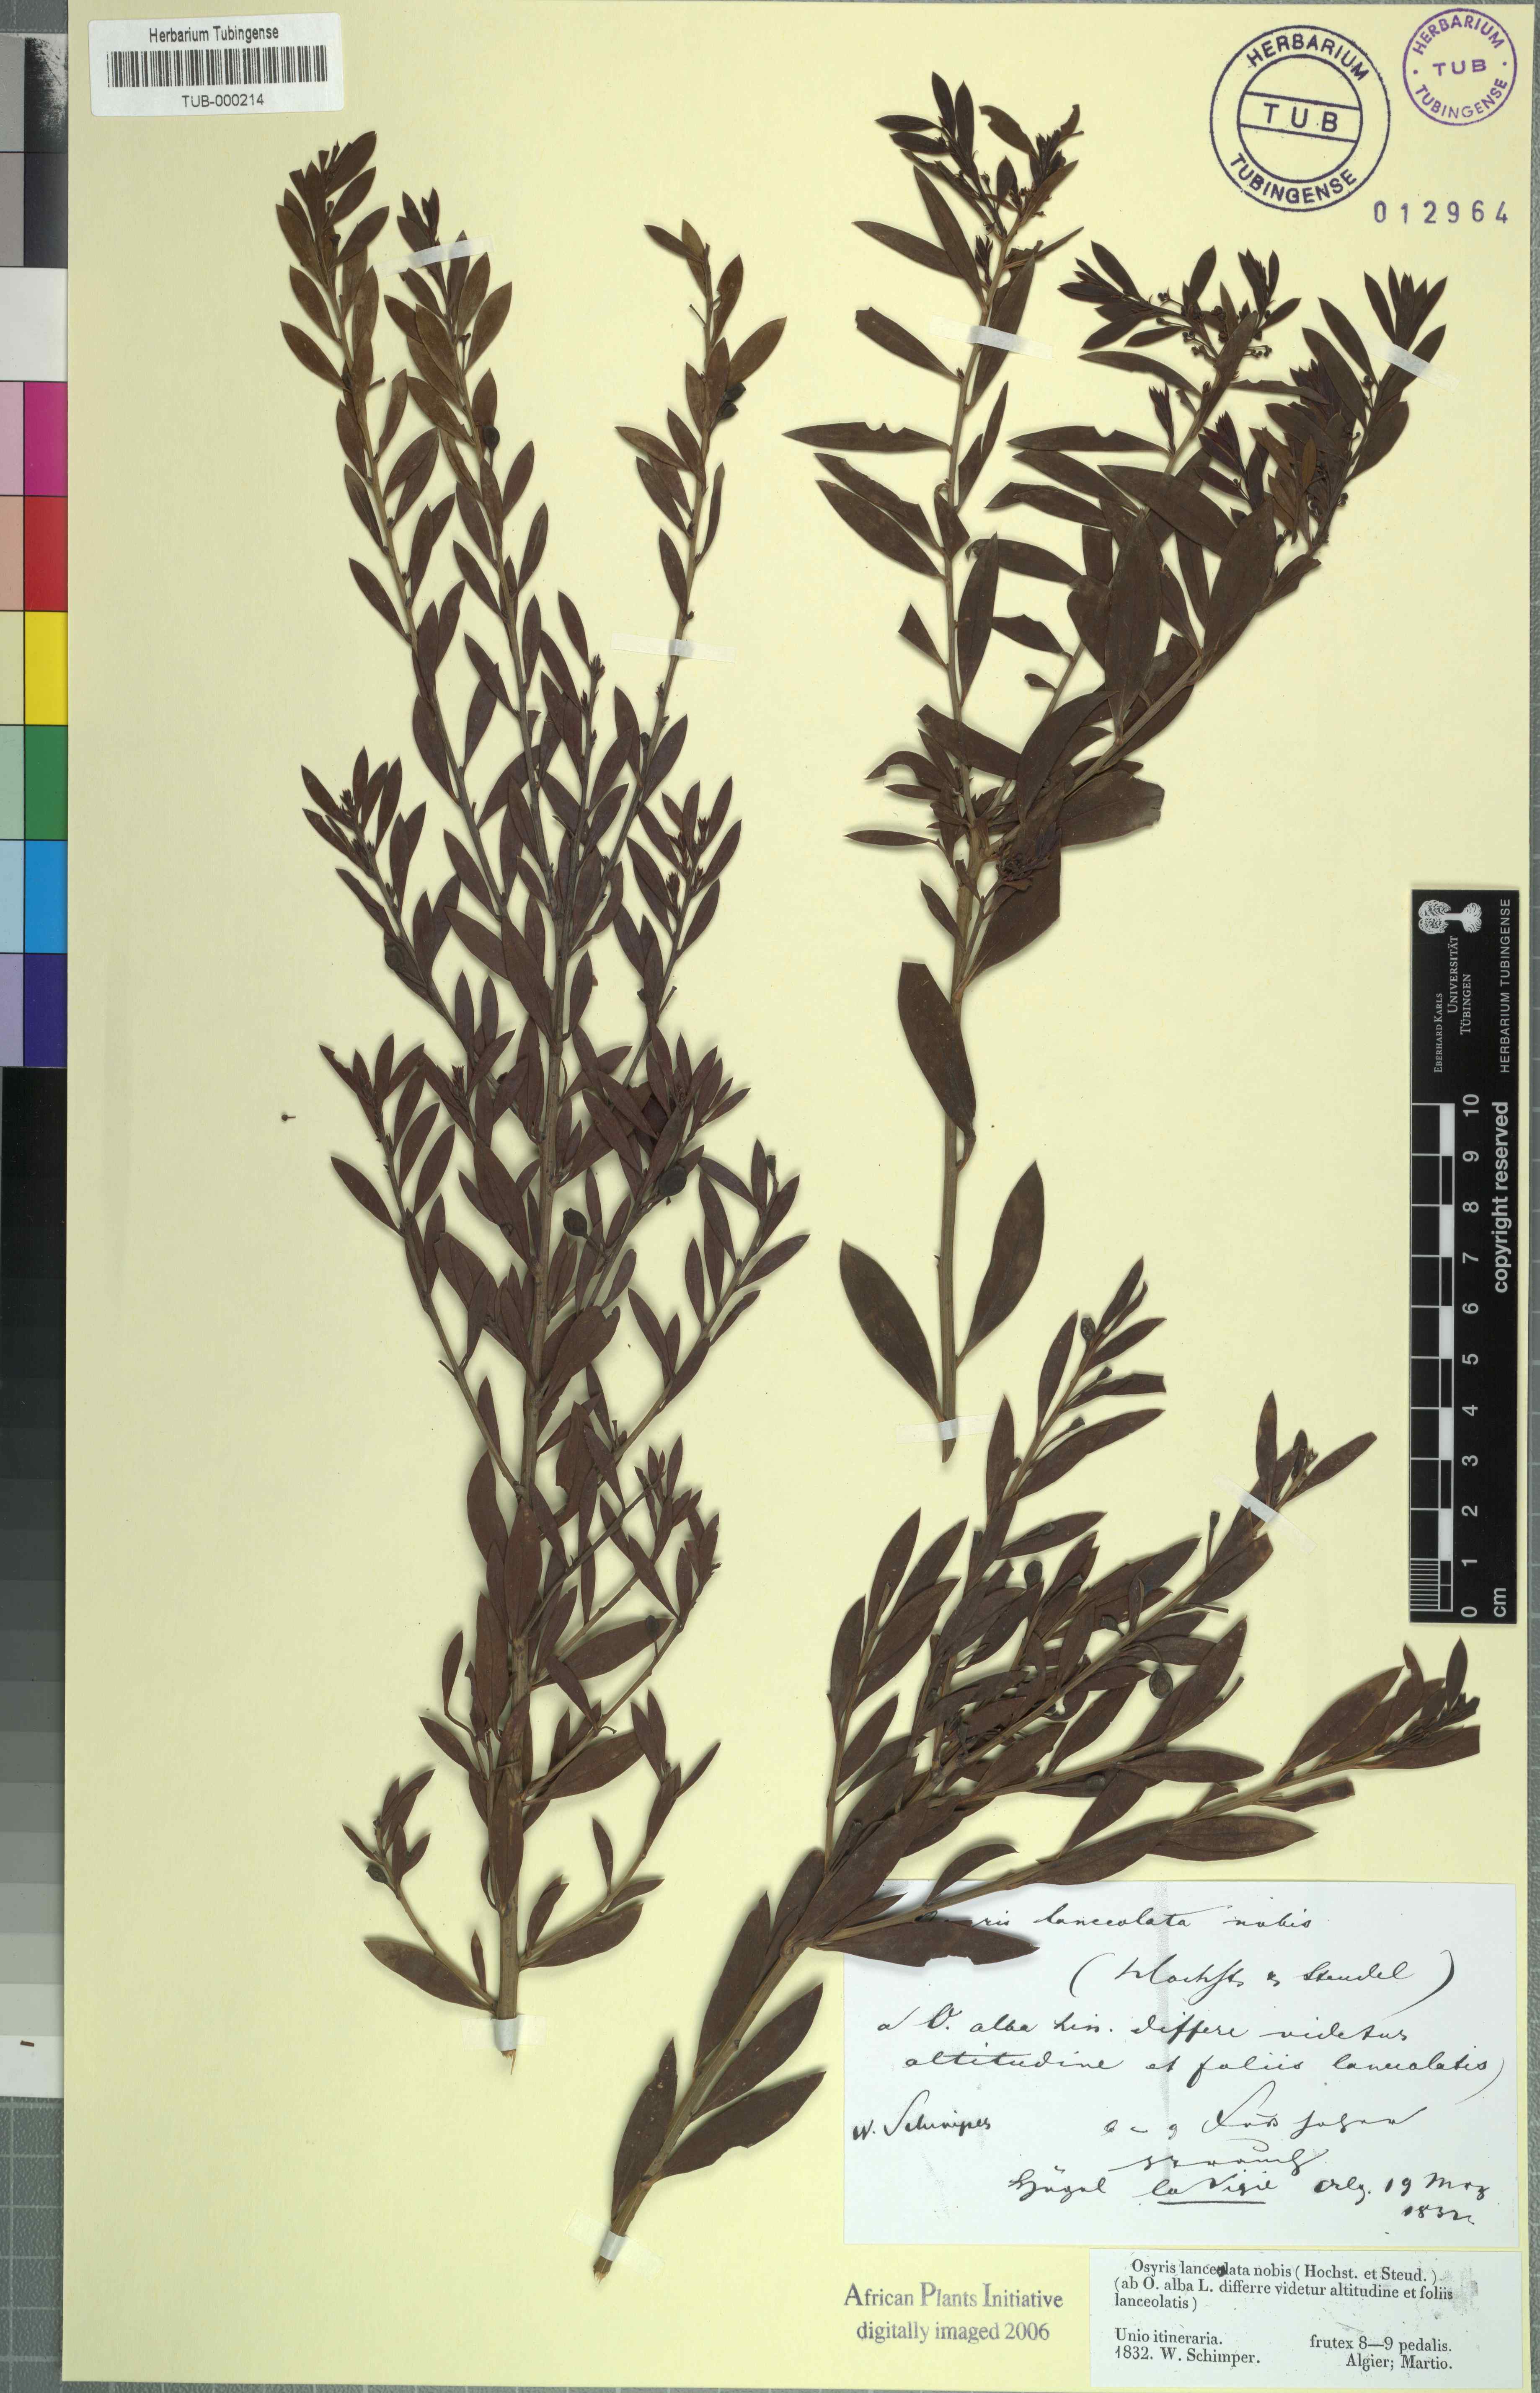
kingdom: Plantae
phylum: Tracheophyta
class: Magnoliopsida
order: Santalales
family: Santalaceae
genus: Osyris
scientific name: Osyris quadripartita
